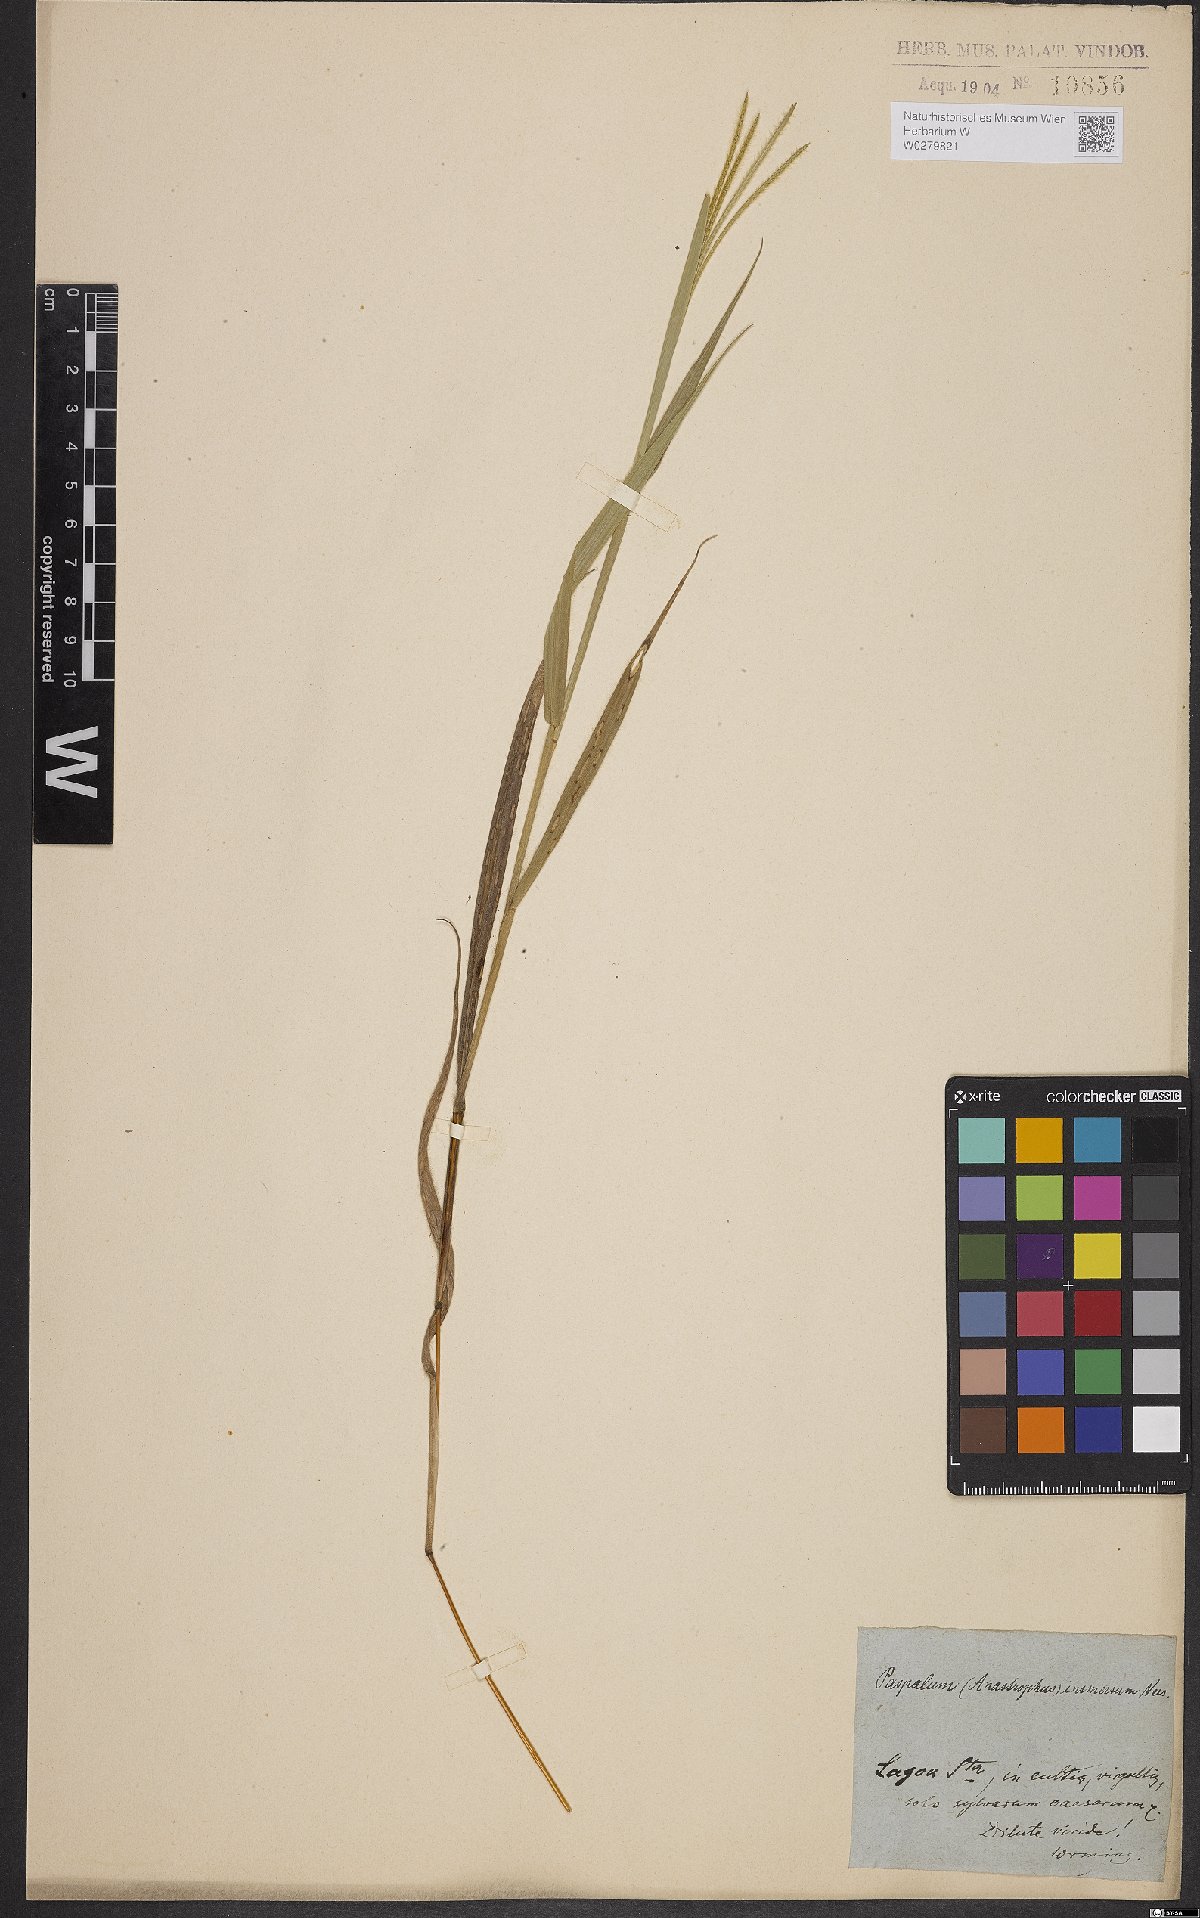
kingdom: Plantae
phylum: Tracheophyta
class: Liliopsida
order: Poales
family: Poaceae
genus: Axonopus
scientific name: Axonopus aureus
